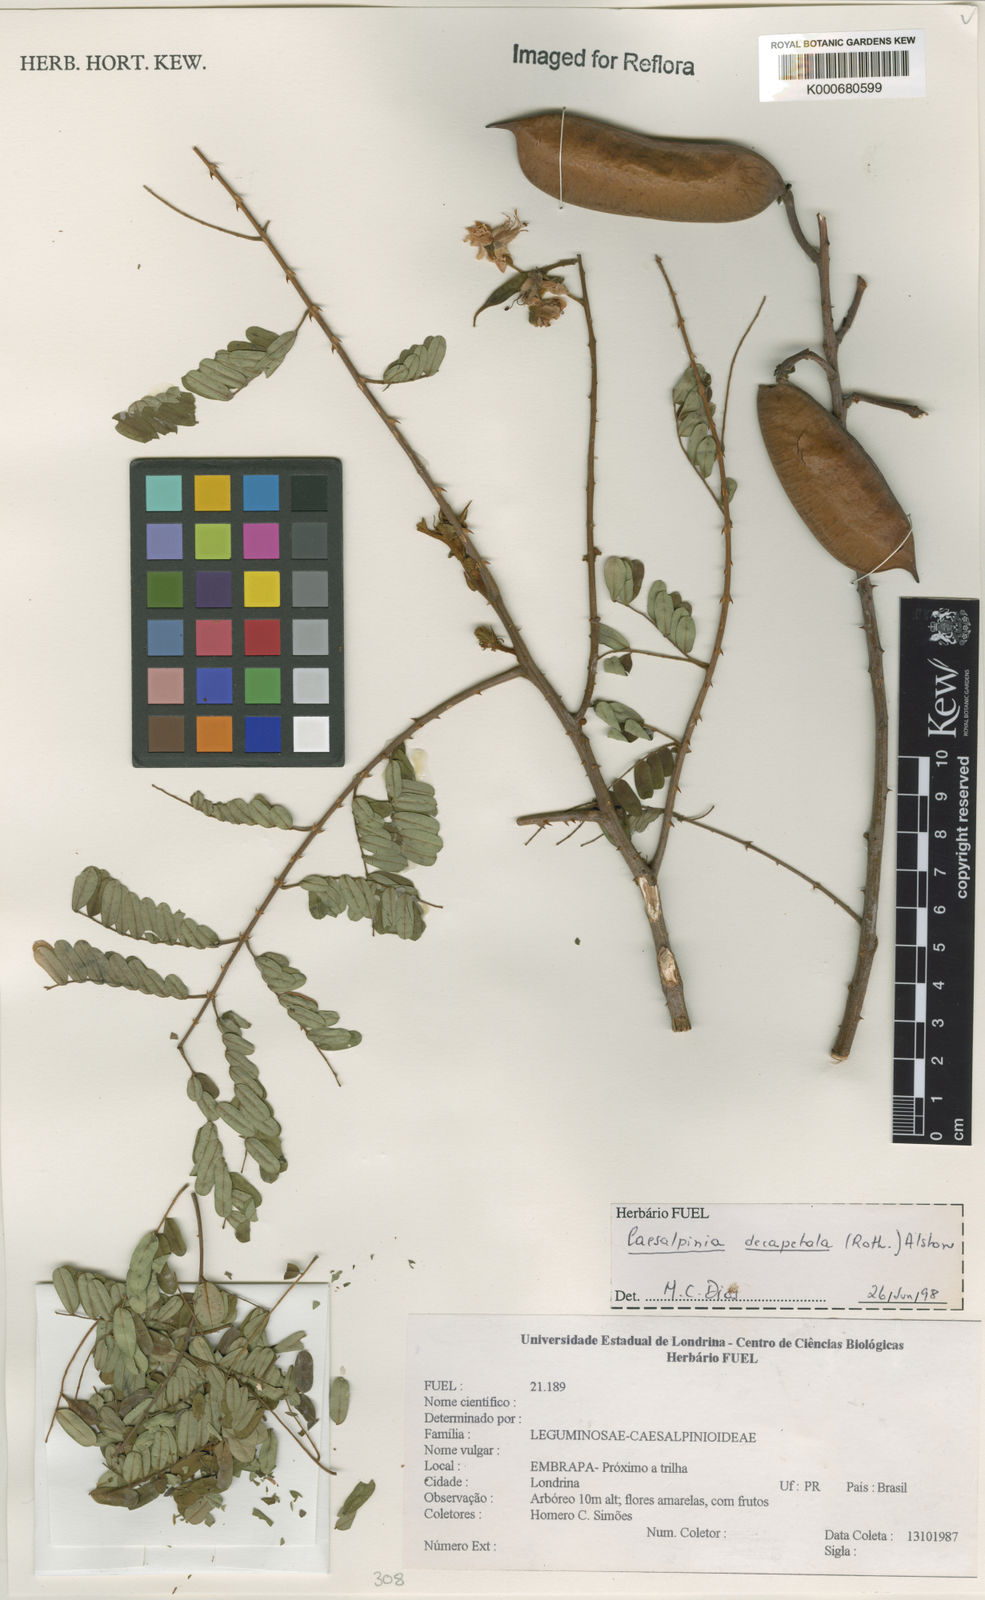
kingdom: Plantae
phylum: Tracheophyta
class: Magnoliopsida
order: Fabales
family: Fabaceae
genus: Biancaea
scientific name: Biancaea decapetala
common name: Cat's claw
